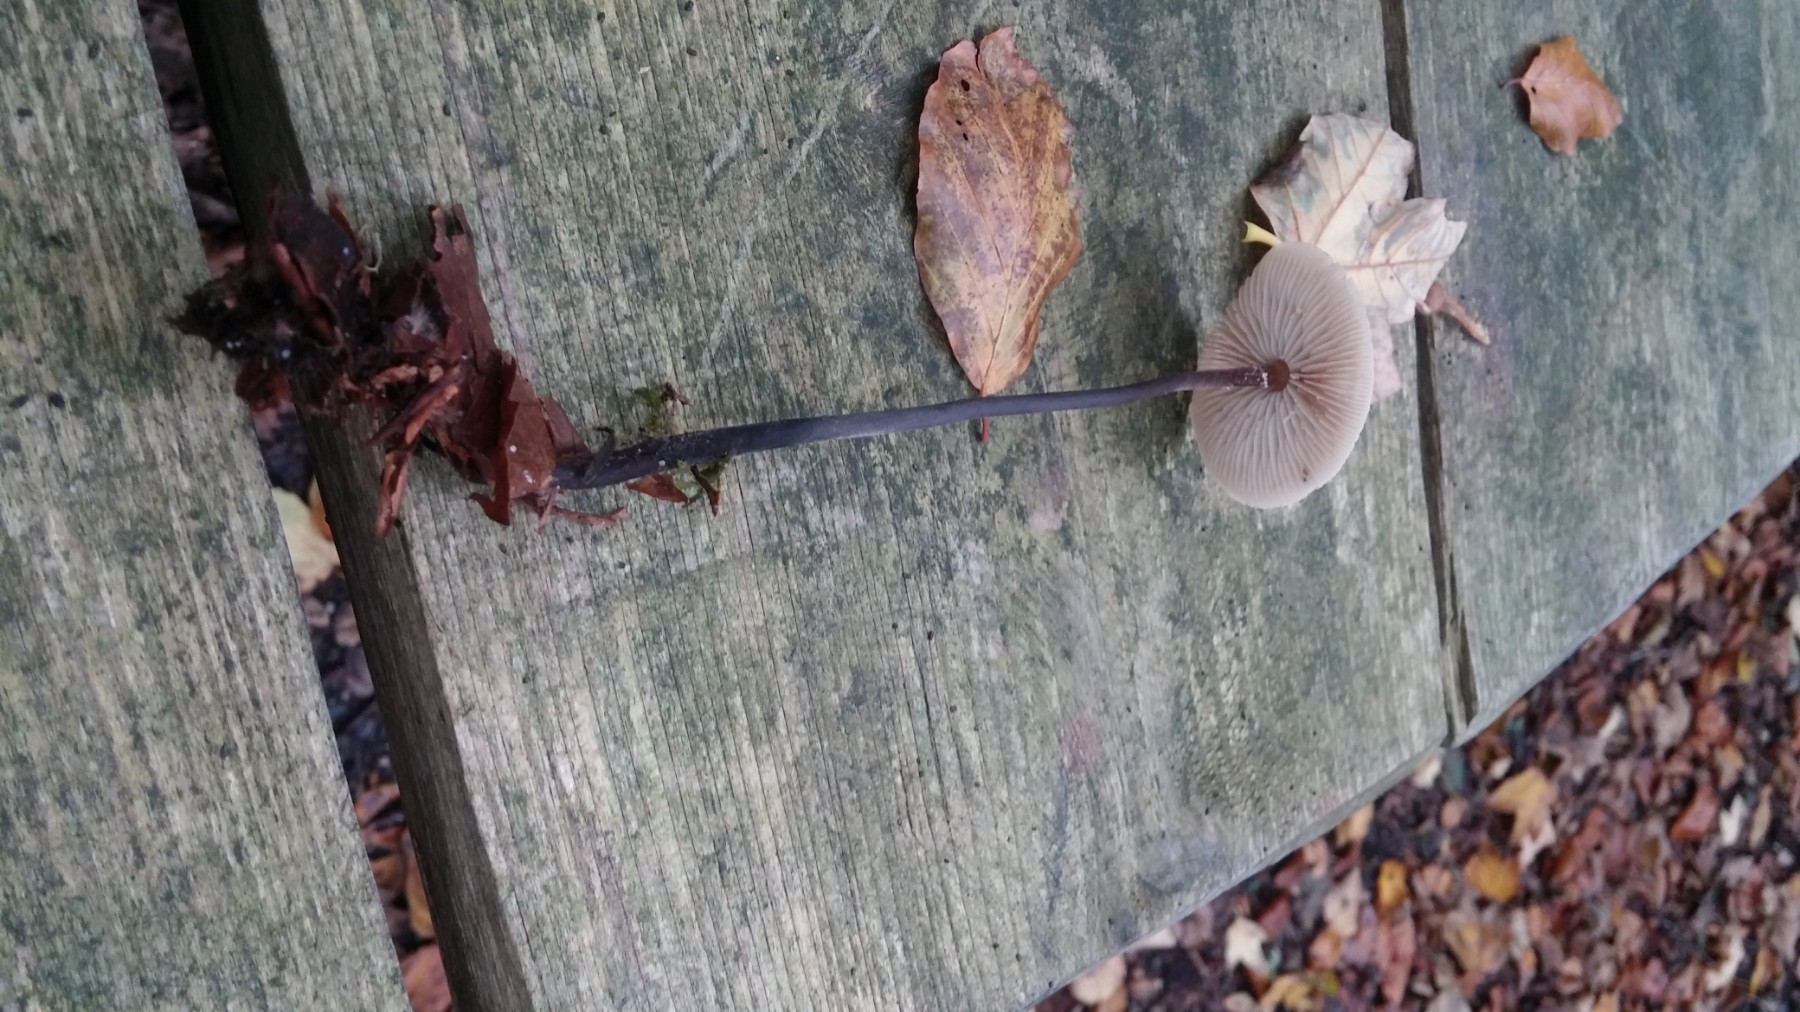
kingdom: Fungi
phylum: Basidiomycota
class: Agaricomycetes
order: Agaricales
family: Omphalotaceae
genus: Mycetinis
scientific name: Mycetinis alliaceus
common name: stor løghat
